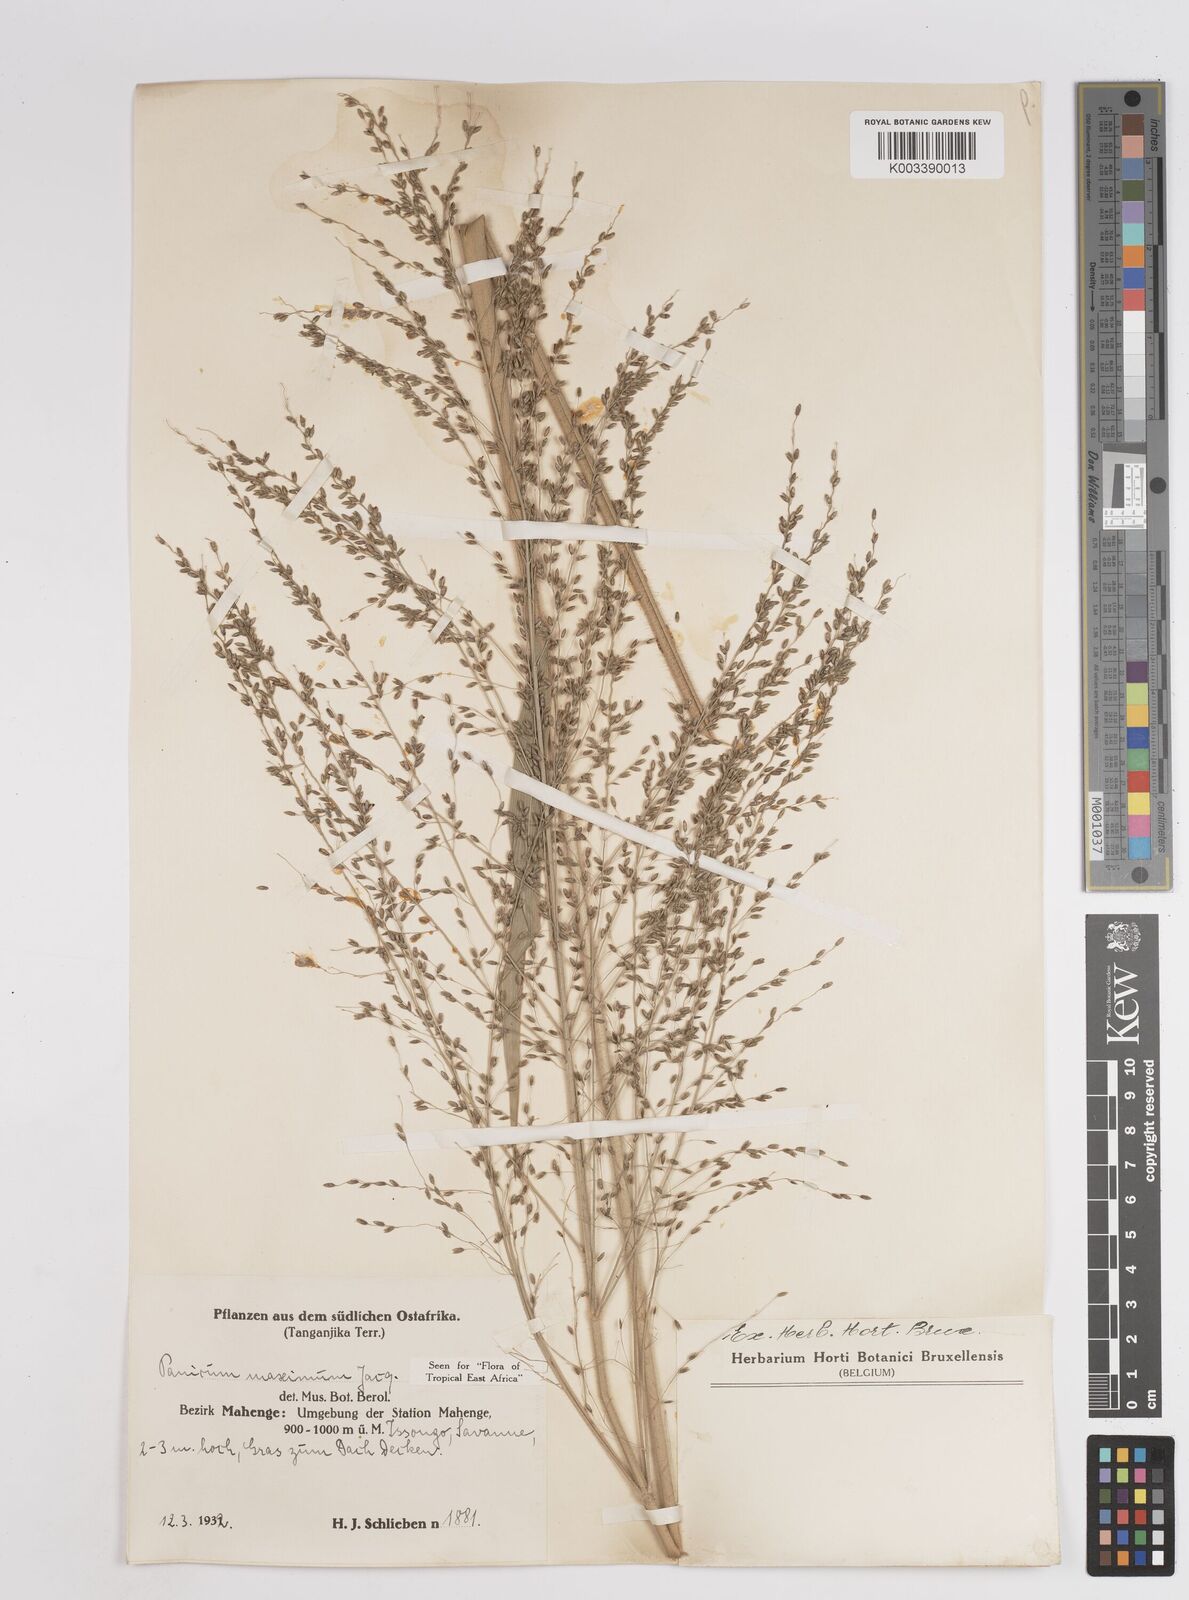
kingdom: Plantae
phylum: Tracheophyta
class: Liliopsida
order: Poales
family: Poaceae
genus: Megathyrsus
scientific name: Megathyrsus maximus
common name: Guineagrass
